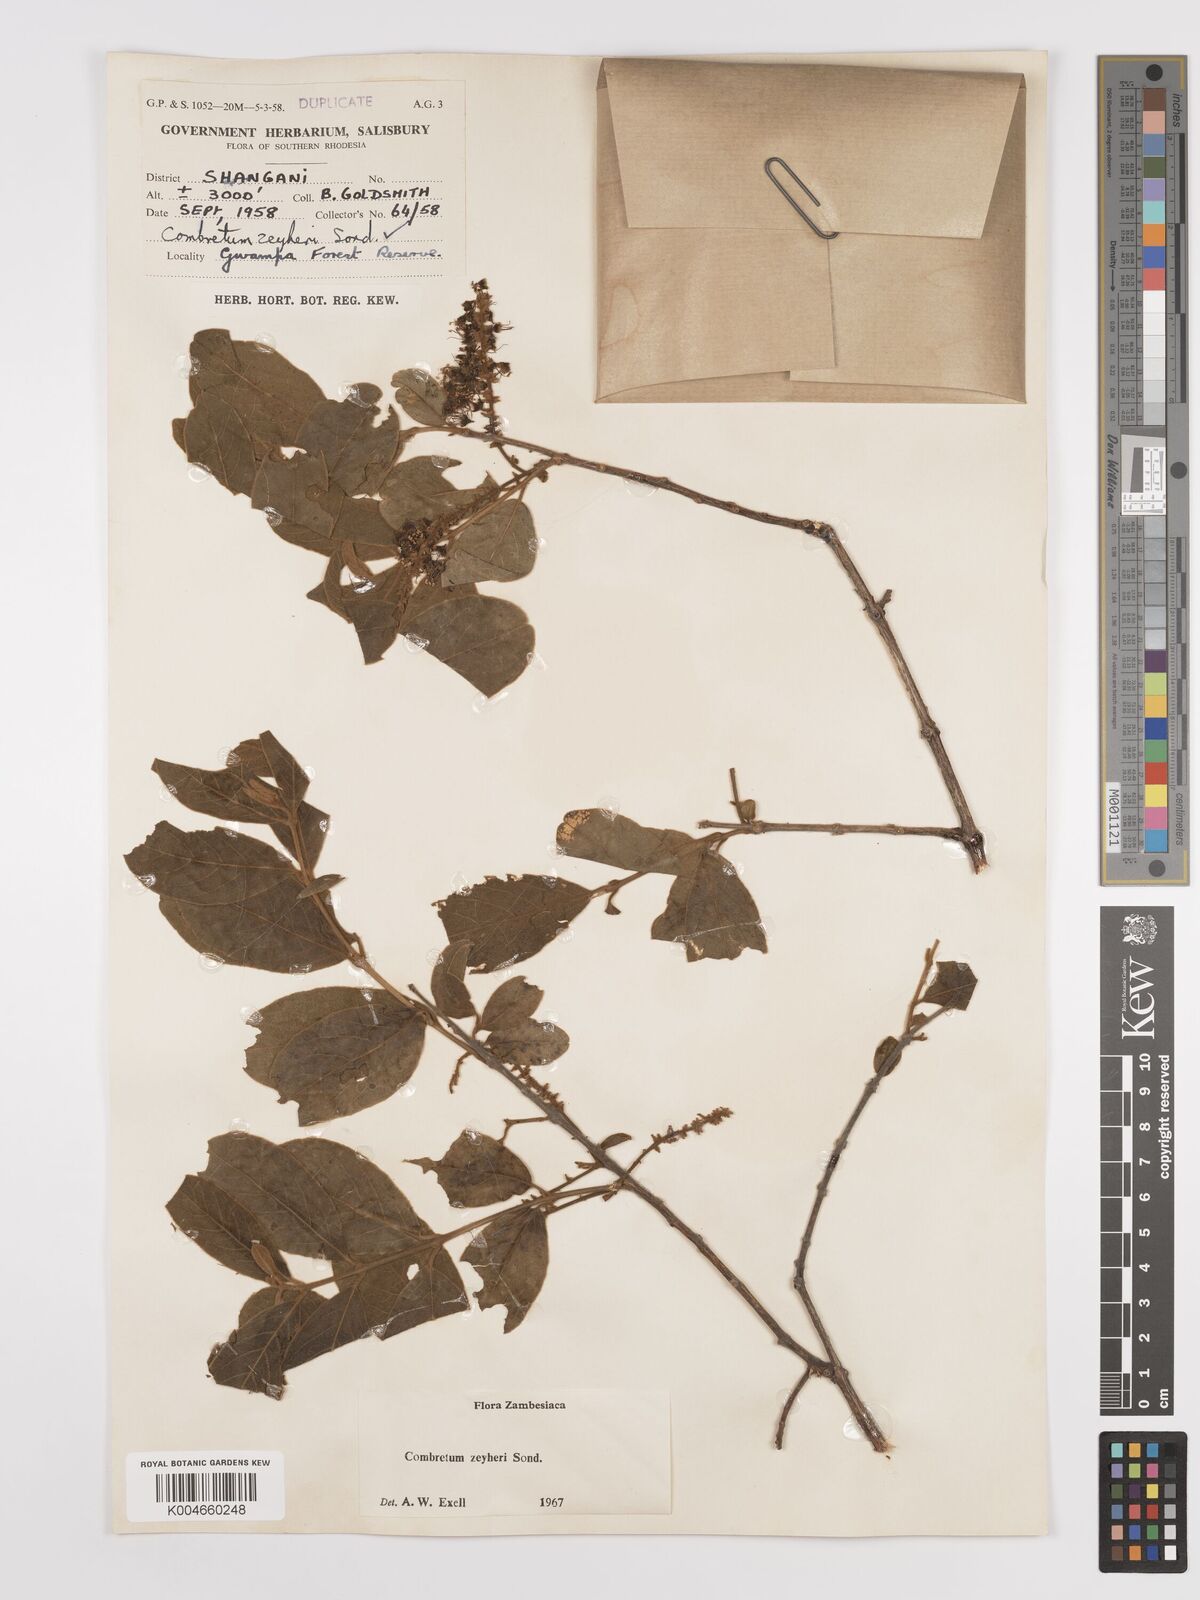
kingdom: Plantae
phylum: Tracheophyta
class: Magnoliopsida
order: Myrtales
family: Combretaceae
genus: Combretum
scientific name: Combretum zeyheri
